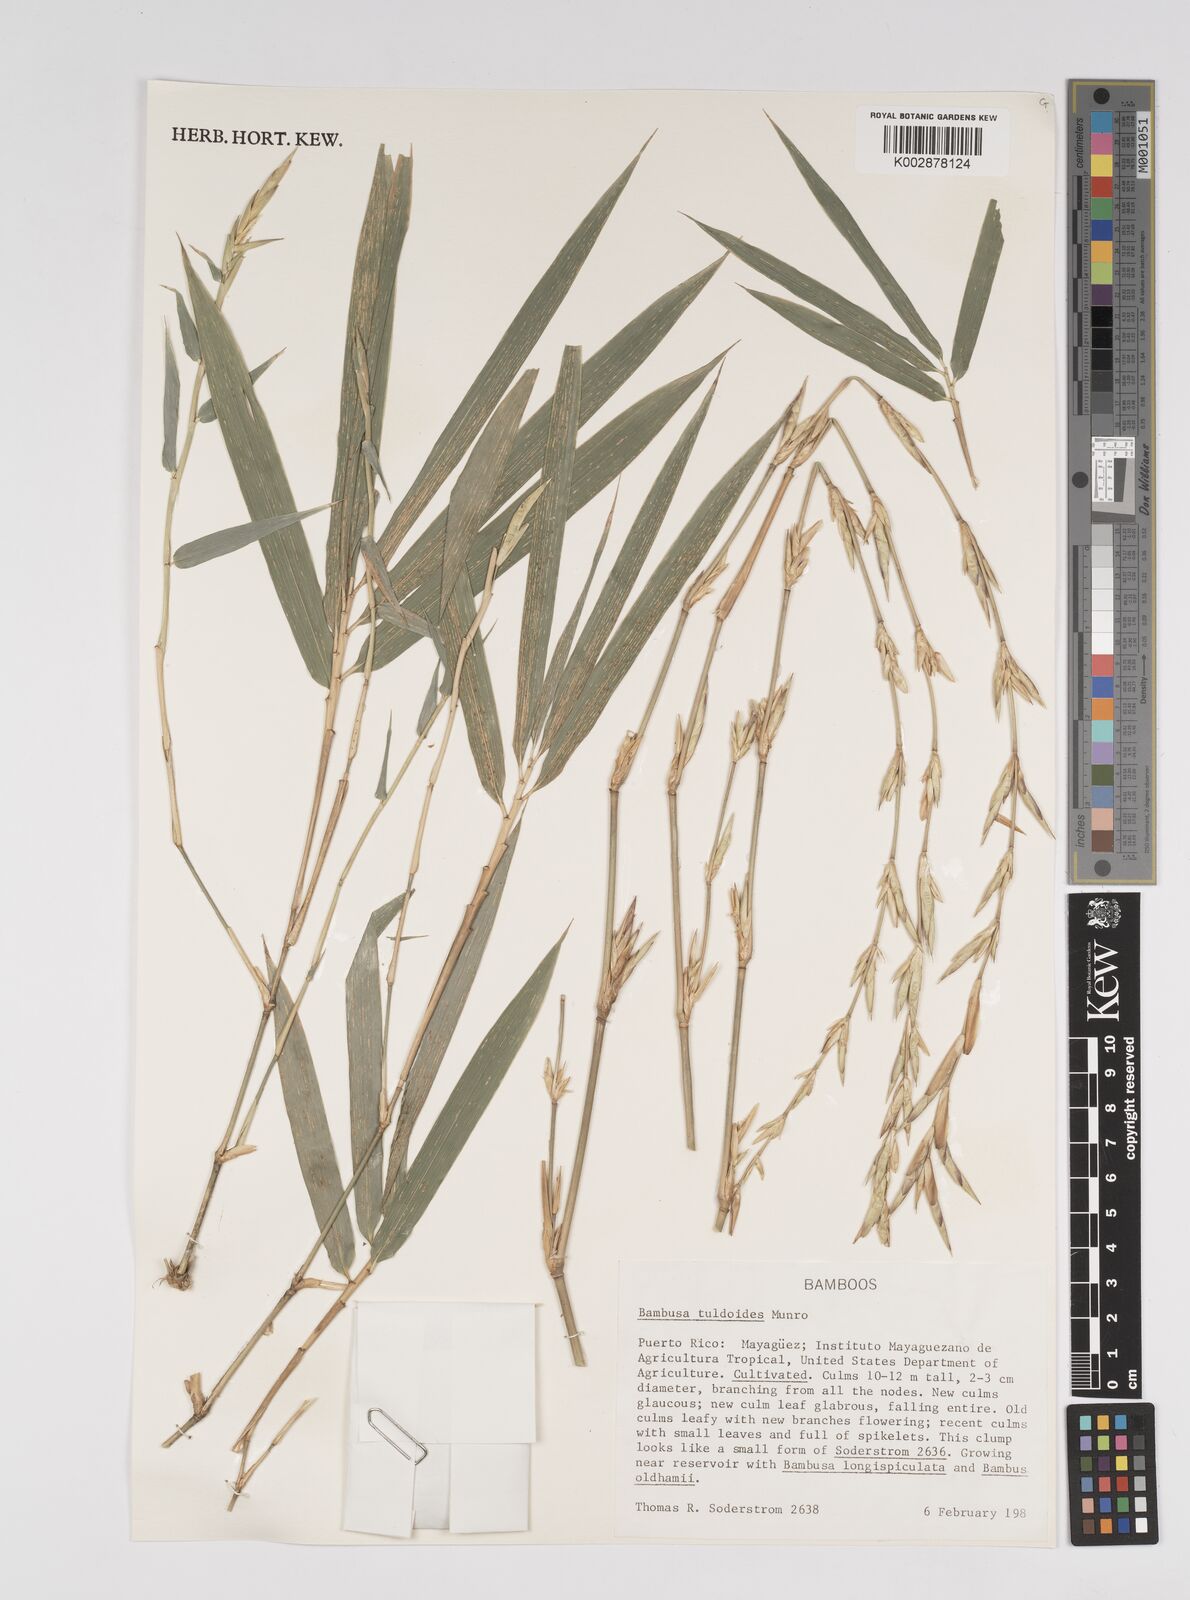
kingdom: Plantae
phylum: Tracheophyta
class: Liliopsida
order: Poales
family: Poaceae
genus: Bambusa
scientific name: Bambusa tuldoides
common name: Verdant bamboo
